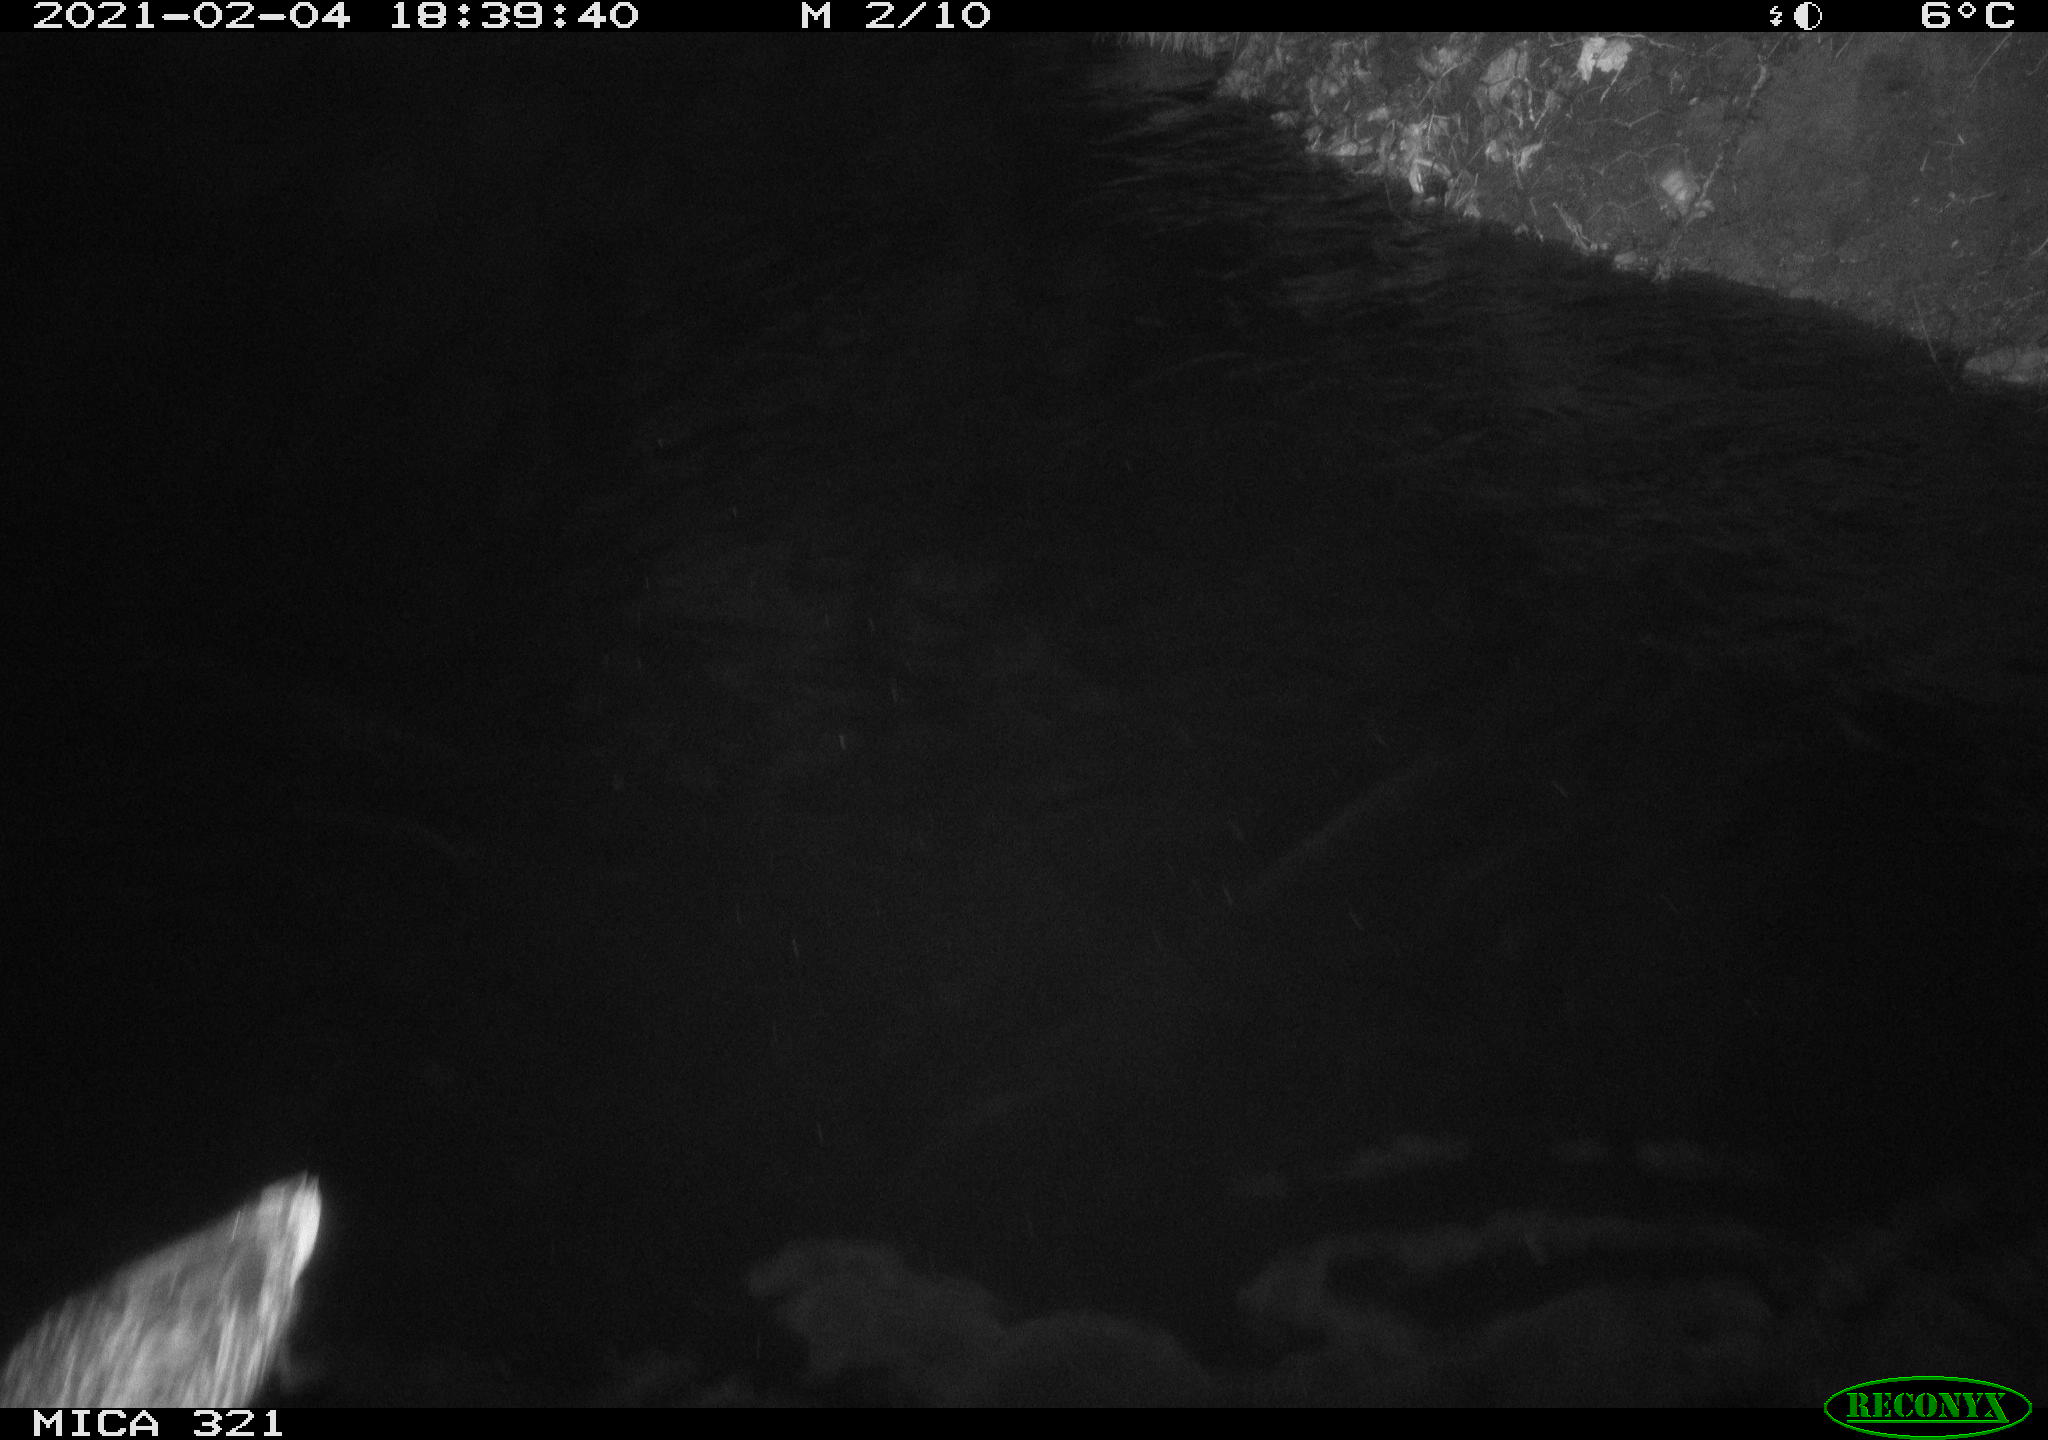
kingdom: Animalia
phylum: Chordata
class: Aves
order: Anseriformes
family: Anatidae
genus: Anas
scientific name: Anas platyrhynchos
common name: Mallard
